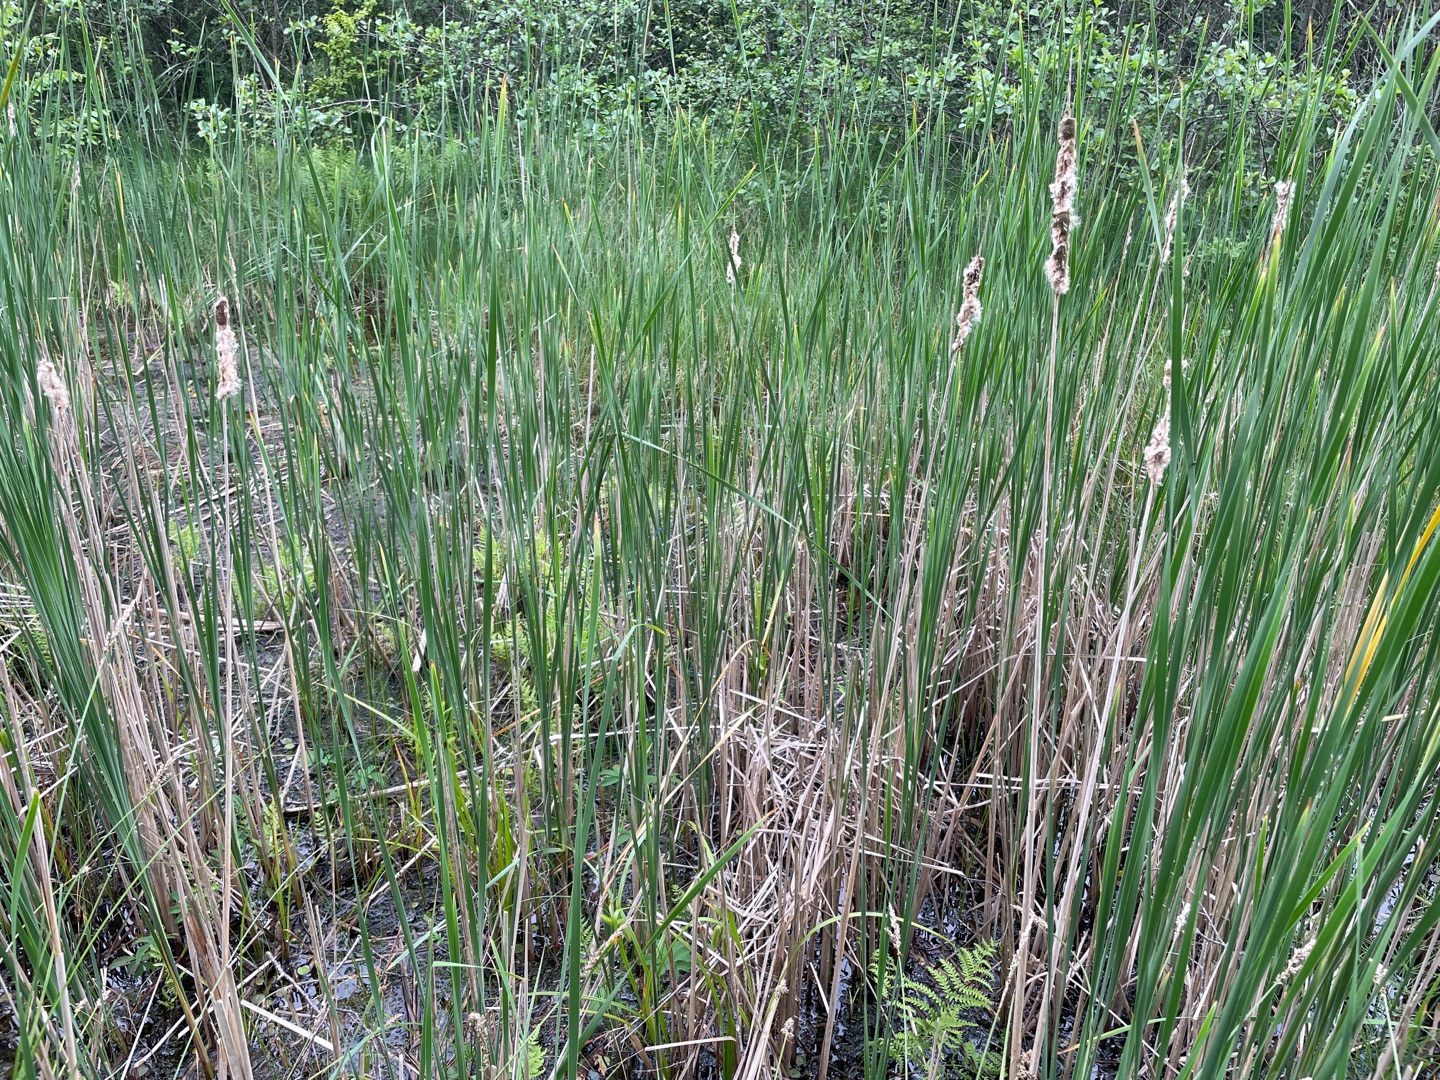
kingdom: Plantae
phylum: Tracheophyta
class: Liliopsida
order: Poales
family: Typhaceae
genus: Typha
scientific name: Typha angustifolia
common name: Smalbladet dunhammer
